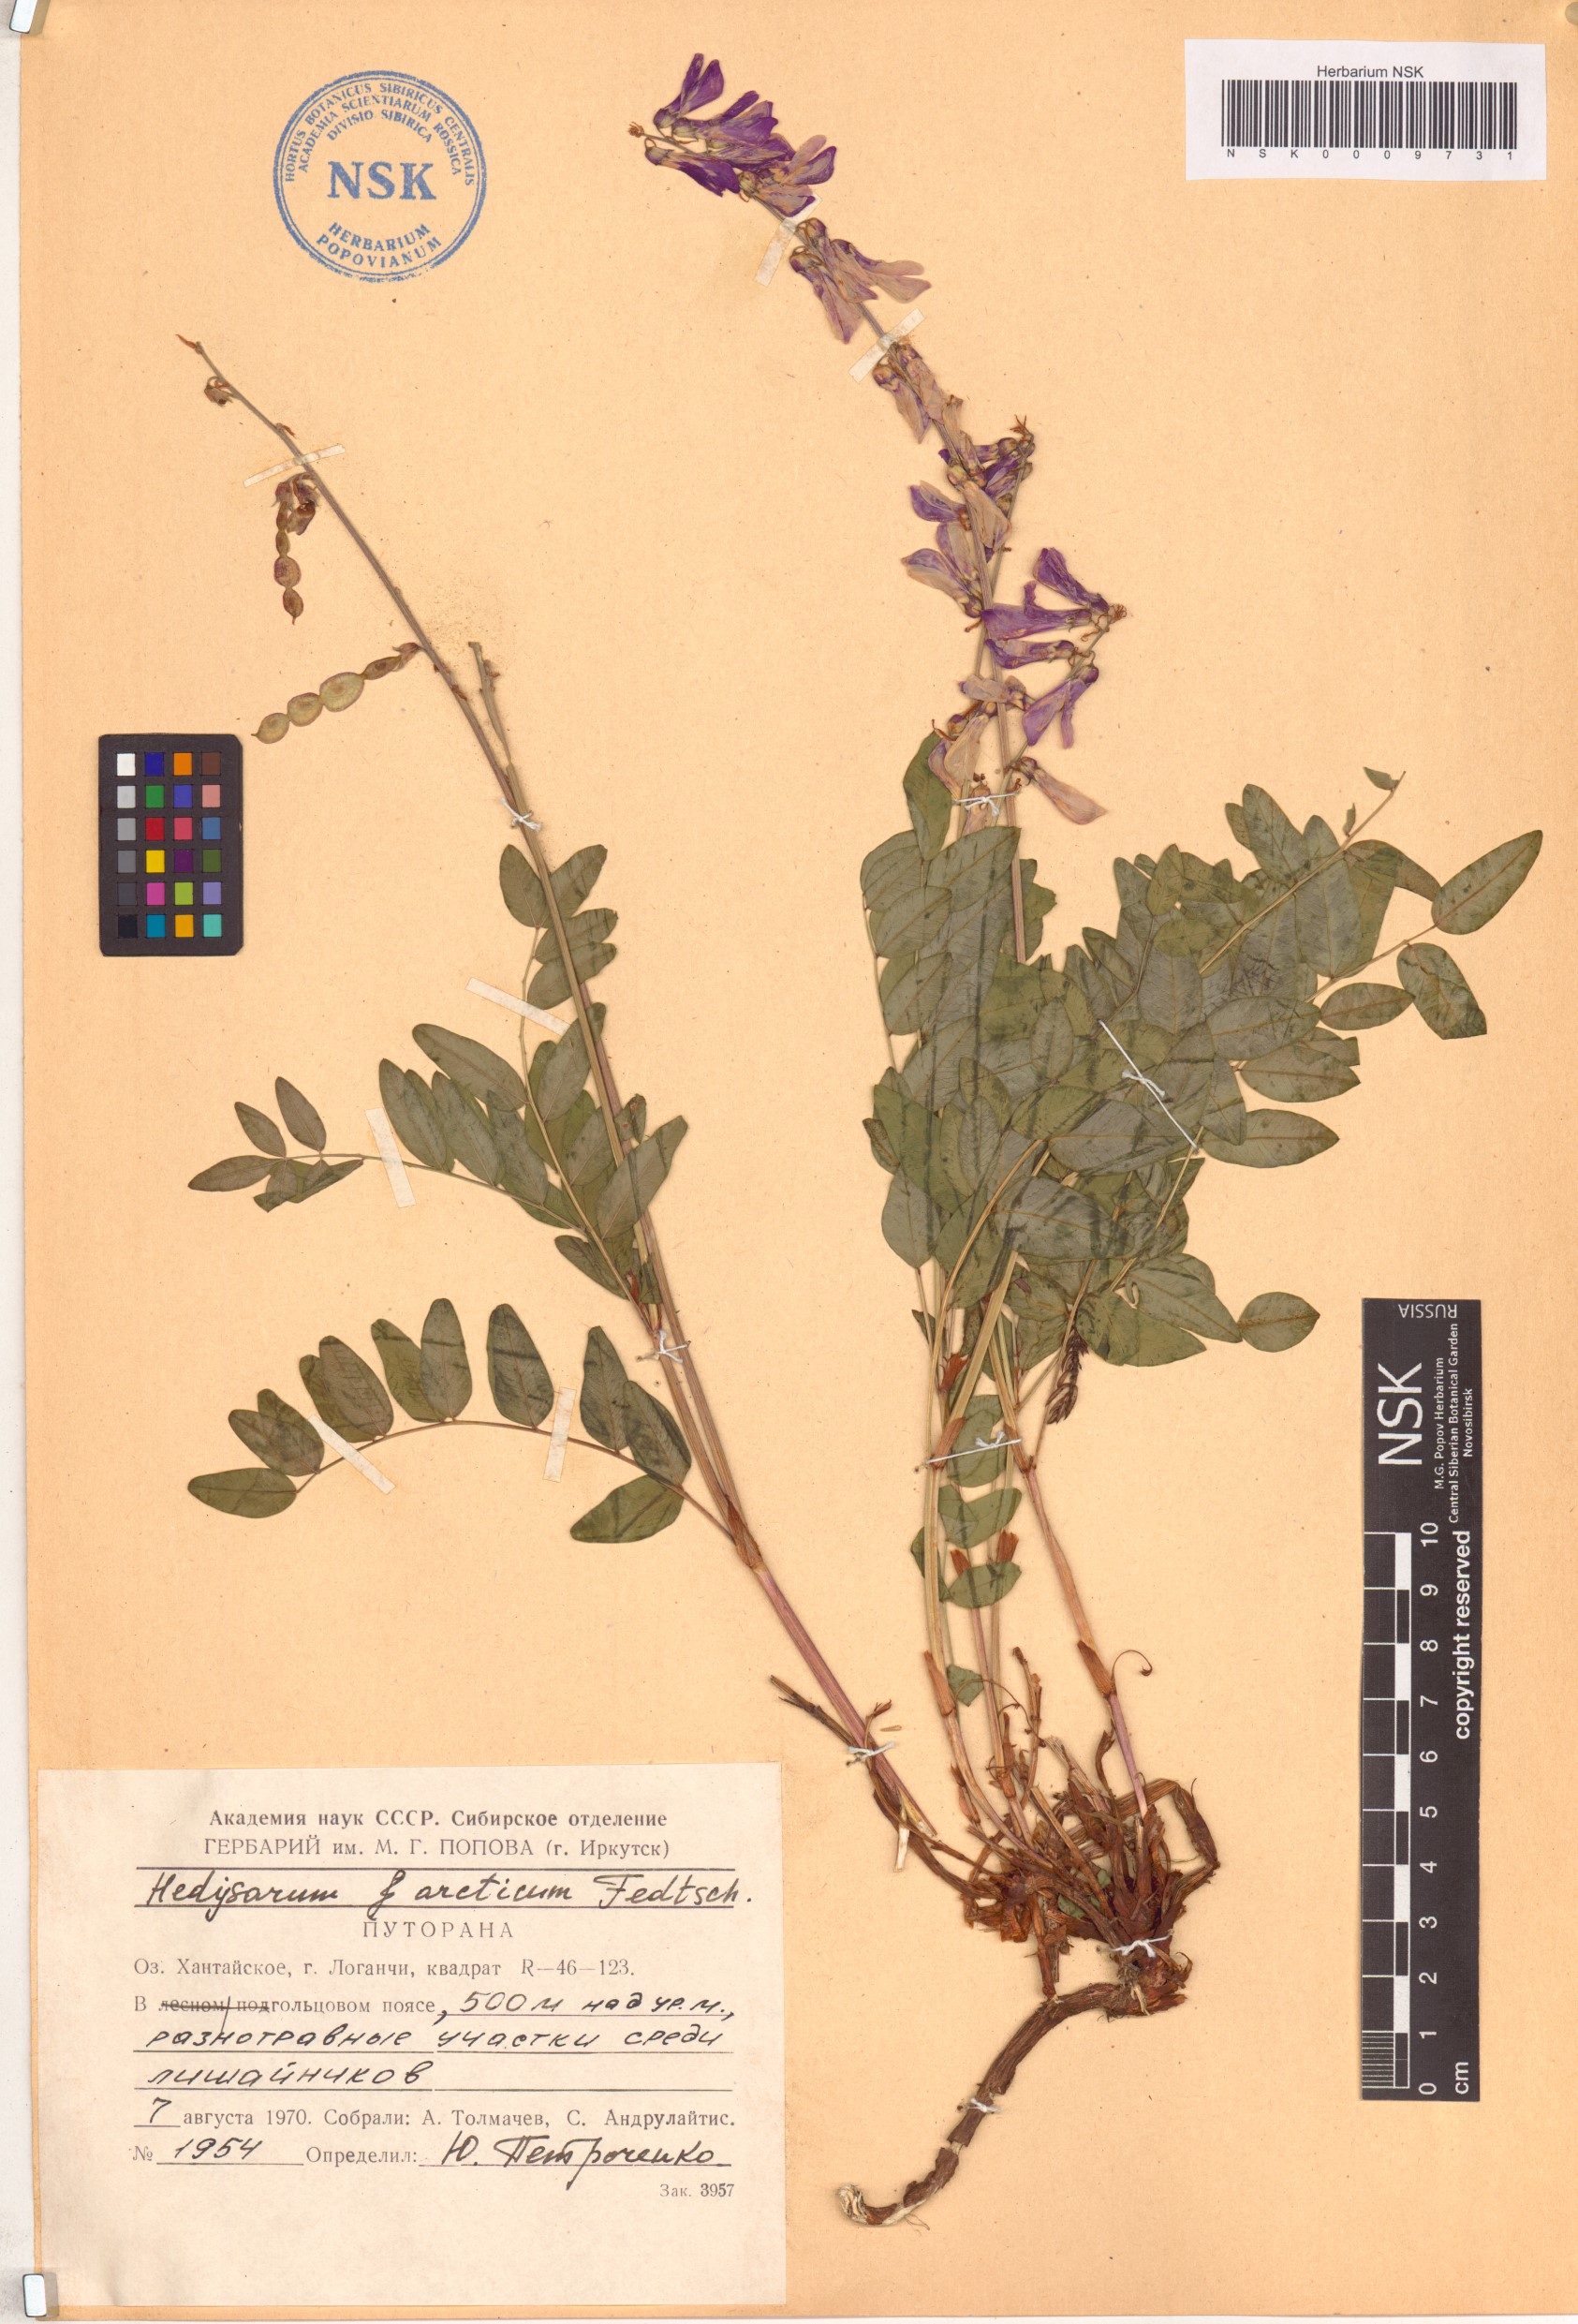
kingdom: Plantae
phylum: Tracheophyta
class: Magnoliopsida
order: Fabales
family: Fabaceae
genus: Hedysarum
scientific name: Hedysarum hedysaroides
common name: Alpine french-honeysuckle
